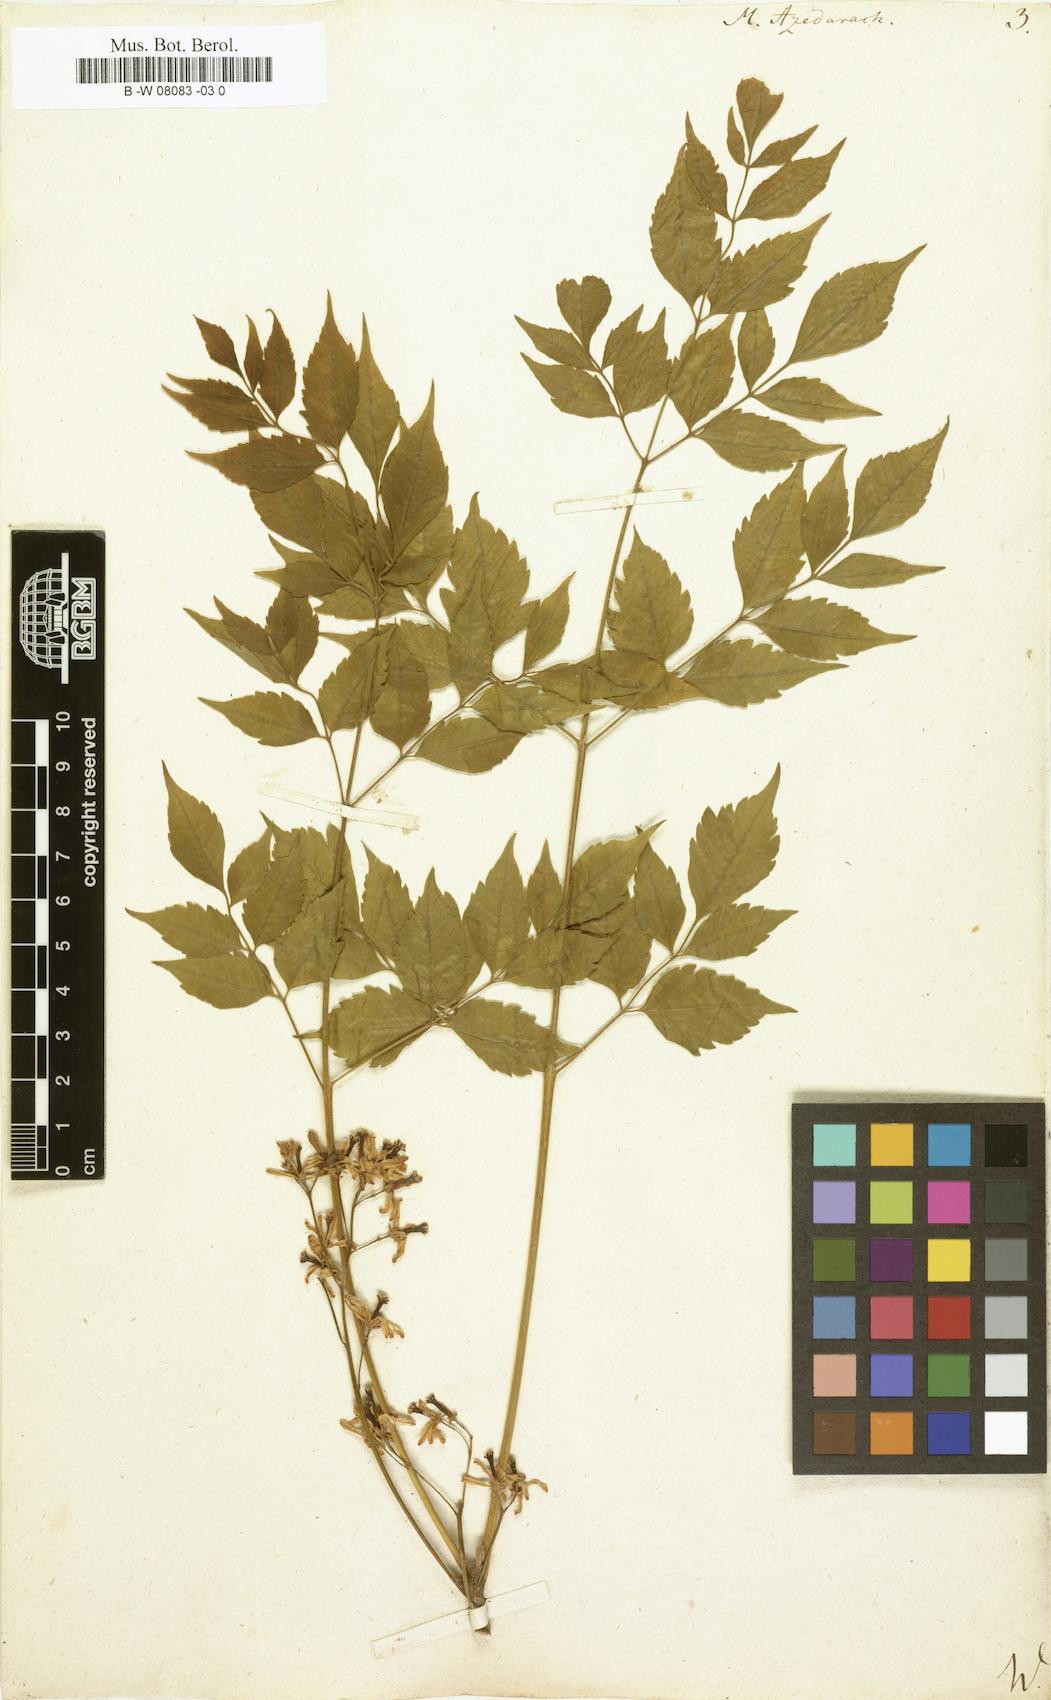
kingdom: Plantae
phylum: Tracheophyta
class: Magnoliopsida
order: Sapindales
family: Meliaceae
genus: Melia
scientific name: Melia azedarach
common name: Chinaberrytree
